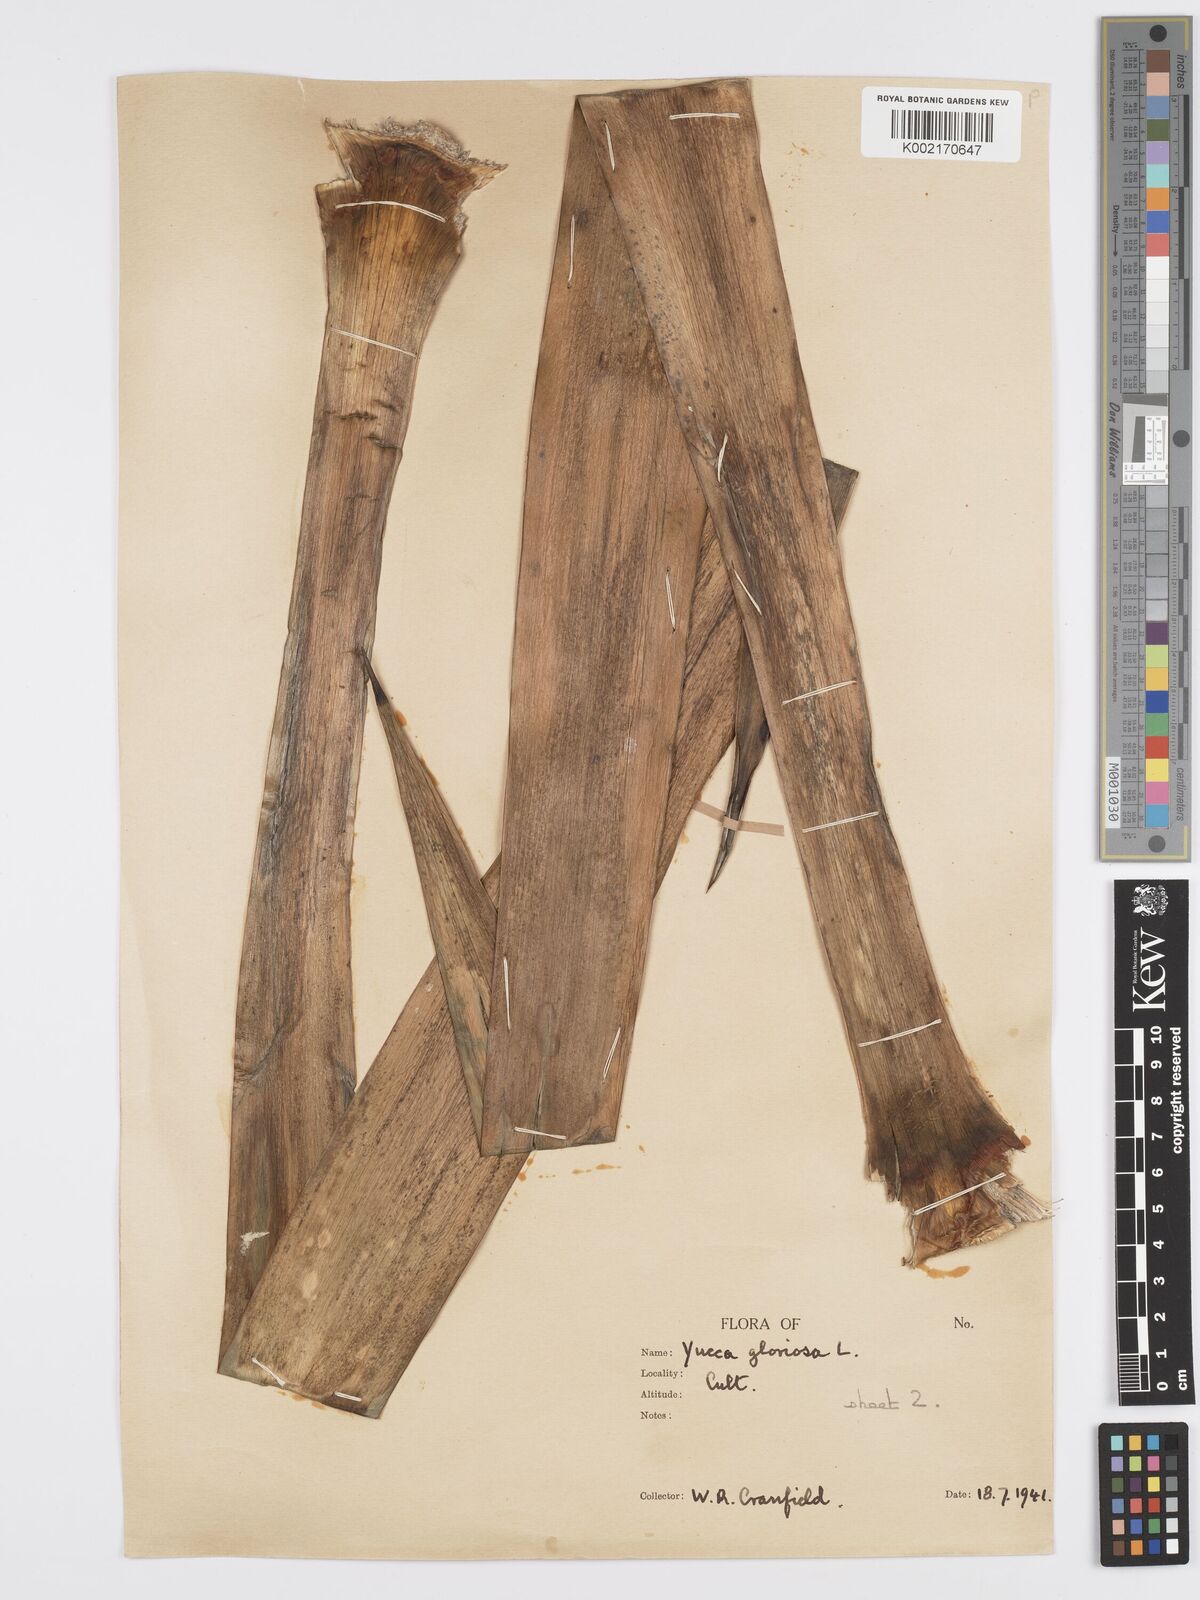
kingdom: Plantae
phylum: Tracheophyta
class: Liliopsida
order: Asparagales
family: Asparagaceae
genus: Yucca
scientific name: Yucca gloriosa
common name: Spanish-dagger
